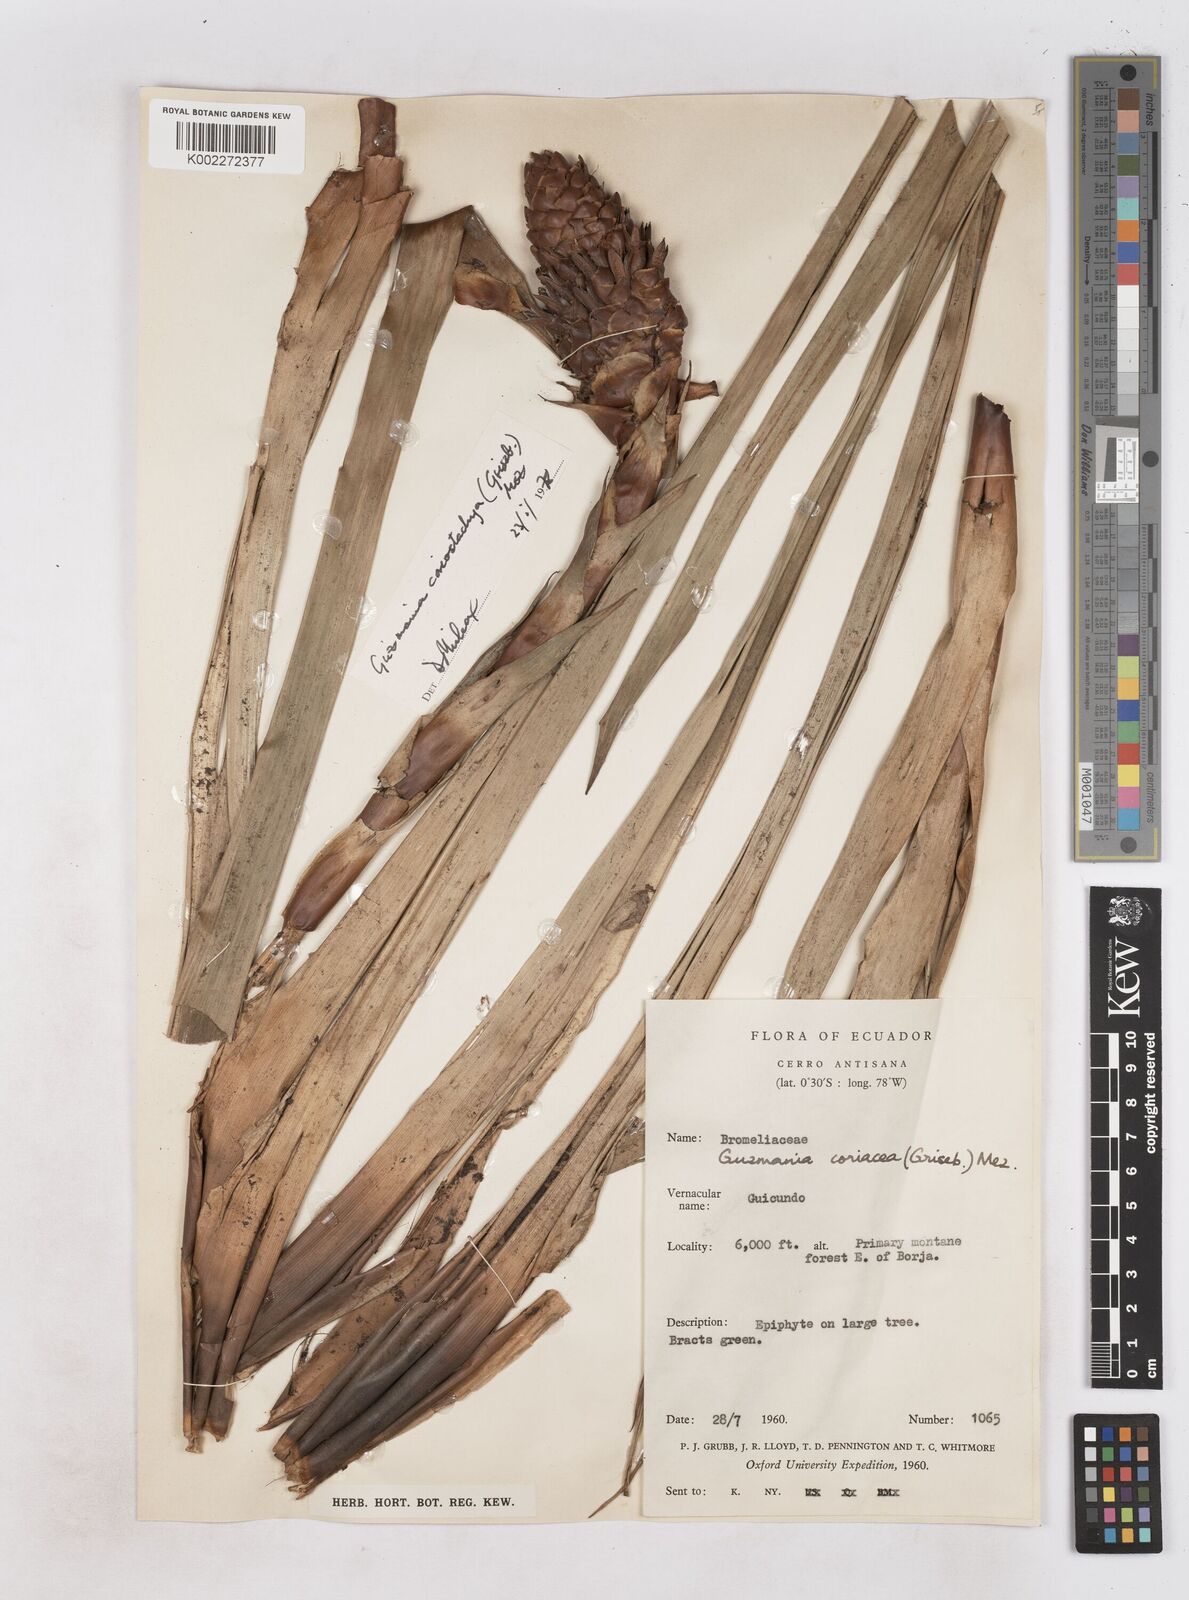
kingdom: Plantae
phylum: Tracheophyta
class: Liliopsida
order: Poales
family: Bromeliaceae
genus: Guzmania
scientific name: Guzmania coriostachya
